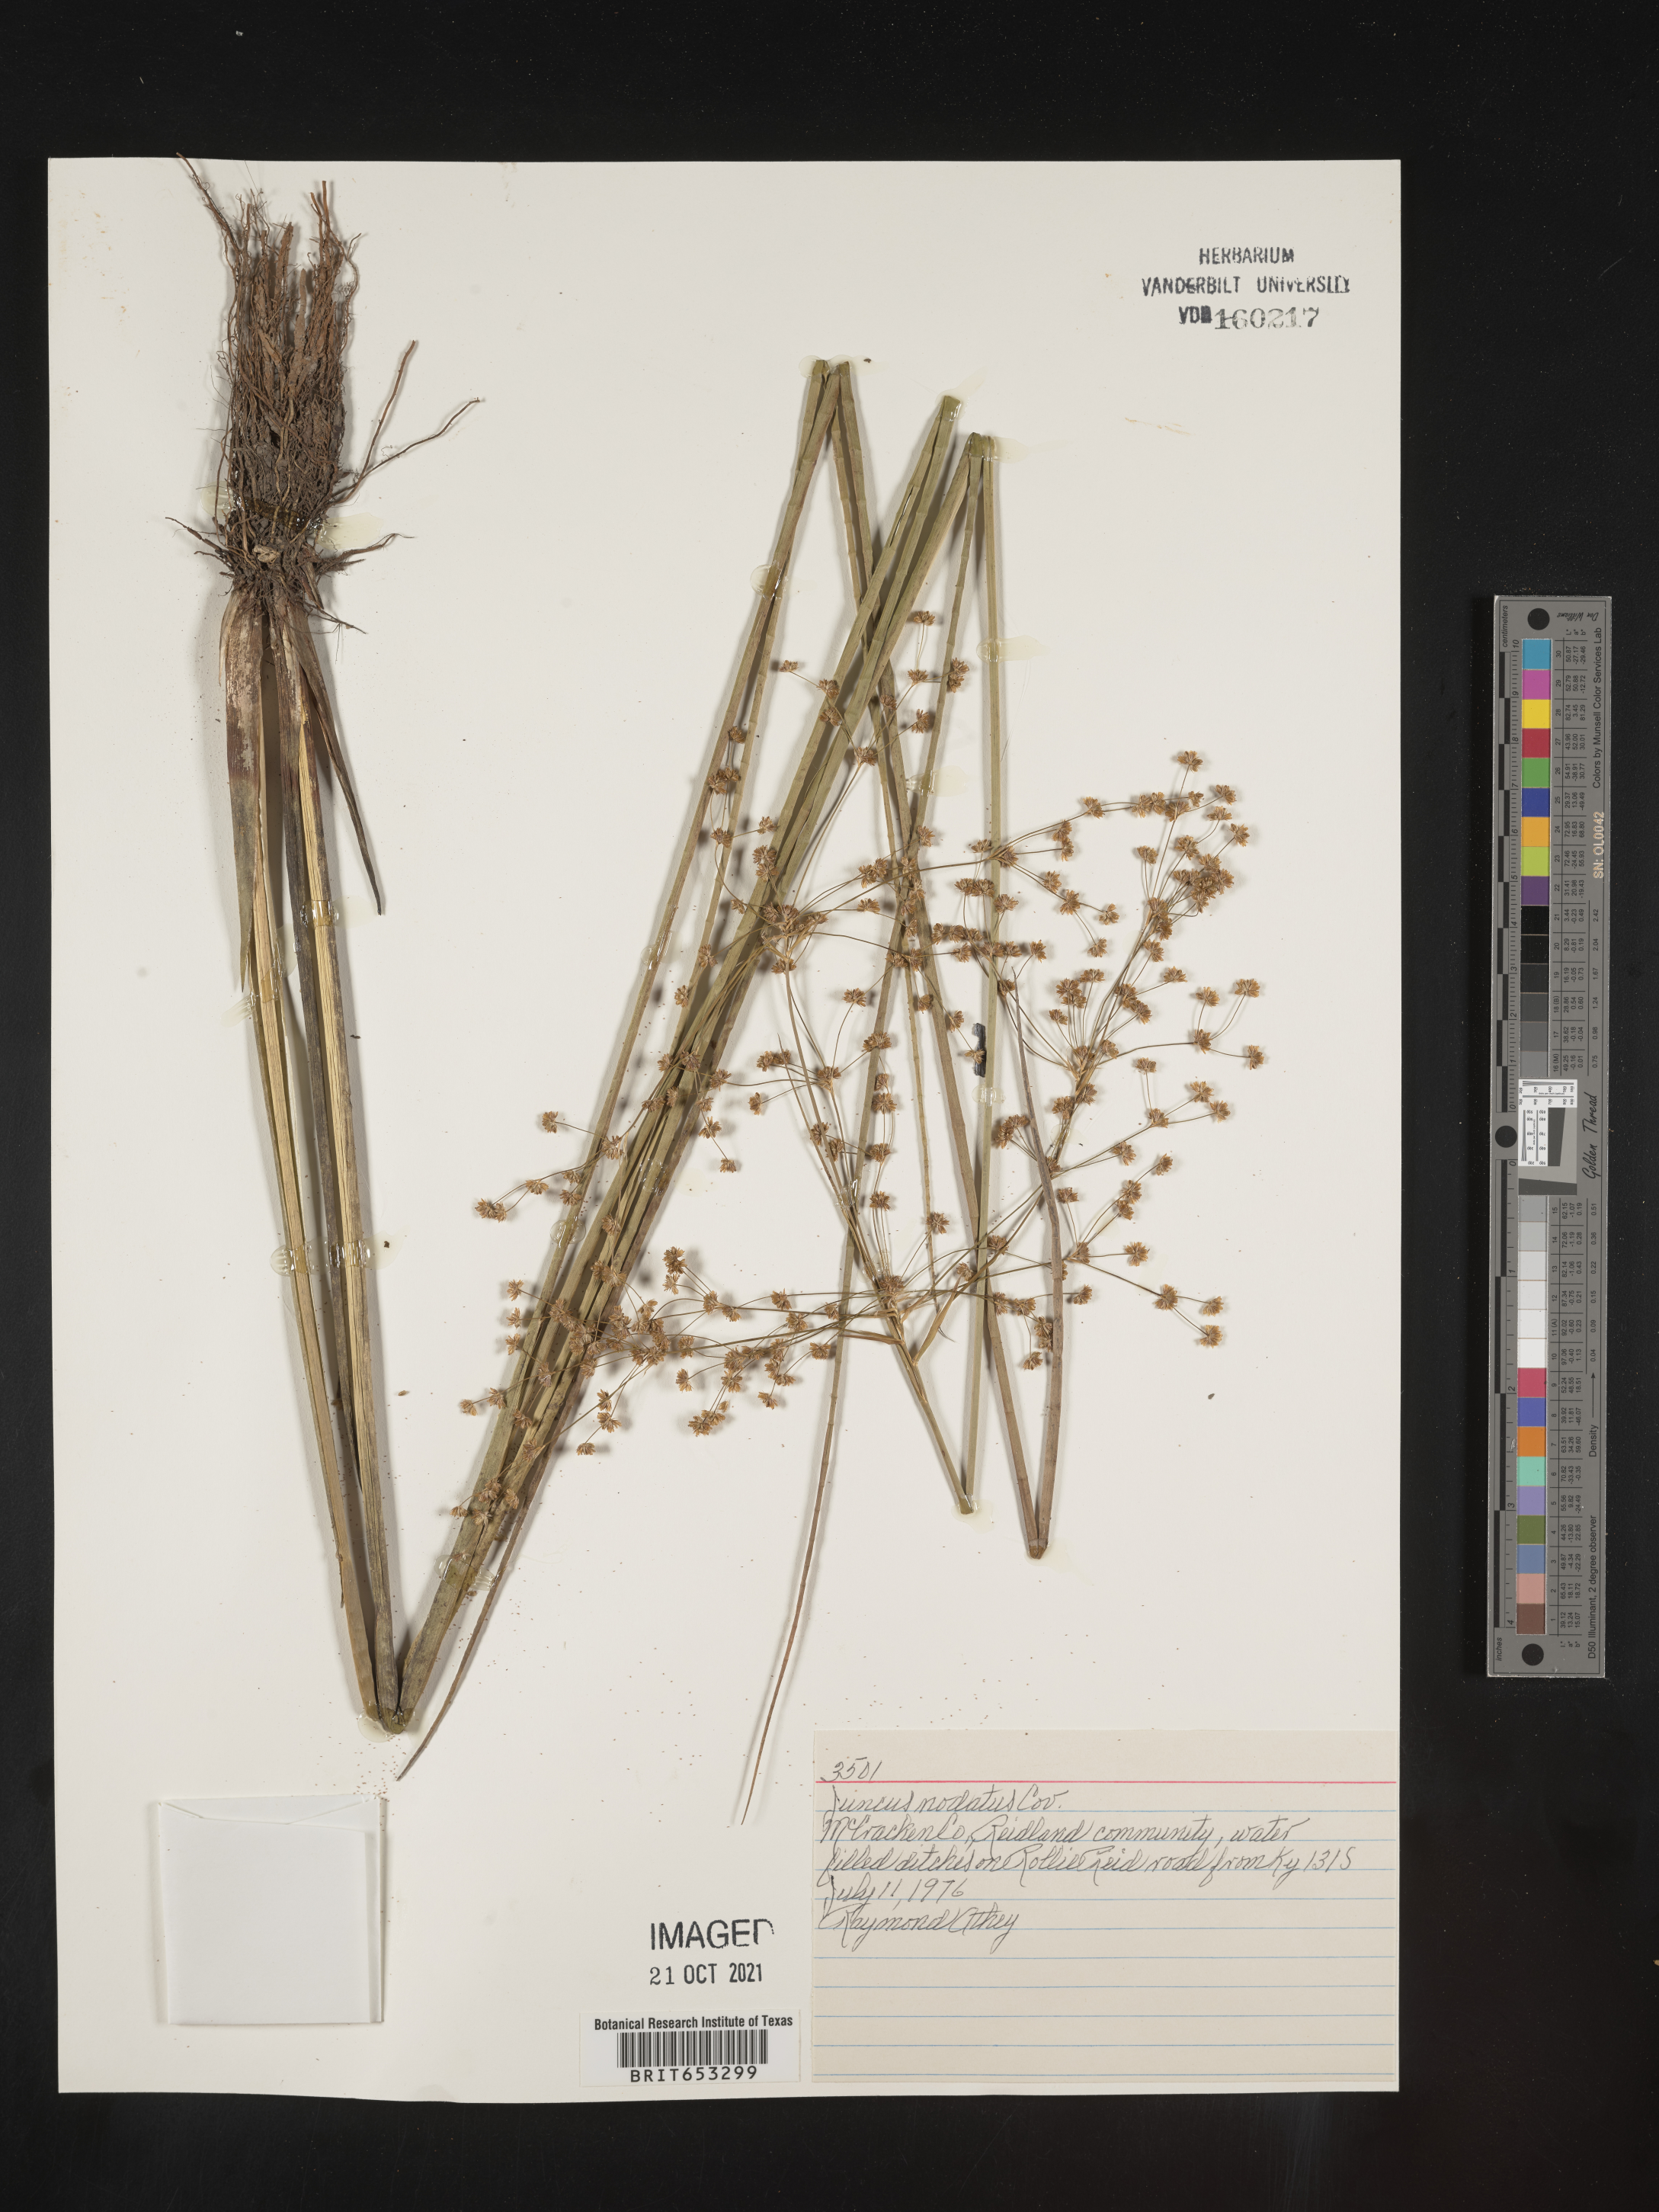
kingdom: Plantae
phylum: Tracheophyta
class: Liliopsida
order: Poales
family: Juncaceae
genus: Juncus
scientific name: Juncus nodatus
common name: Stout rush
